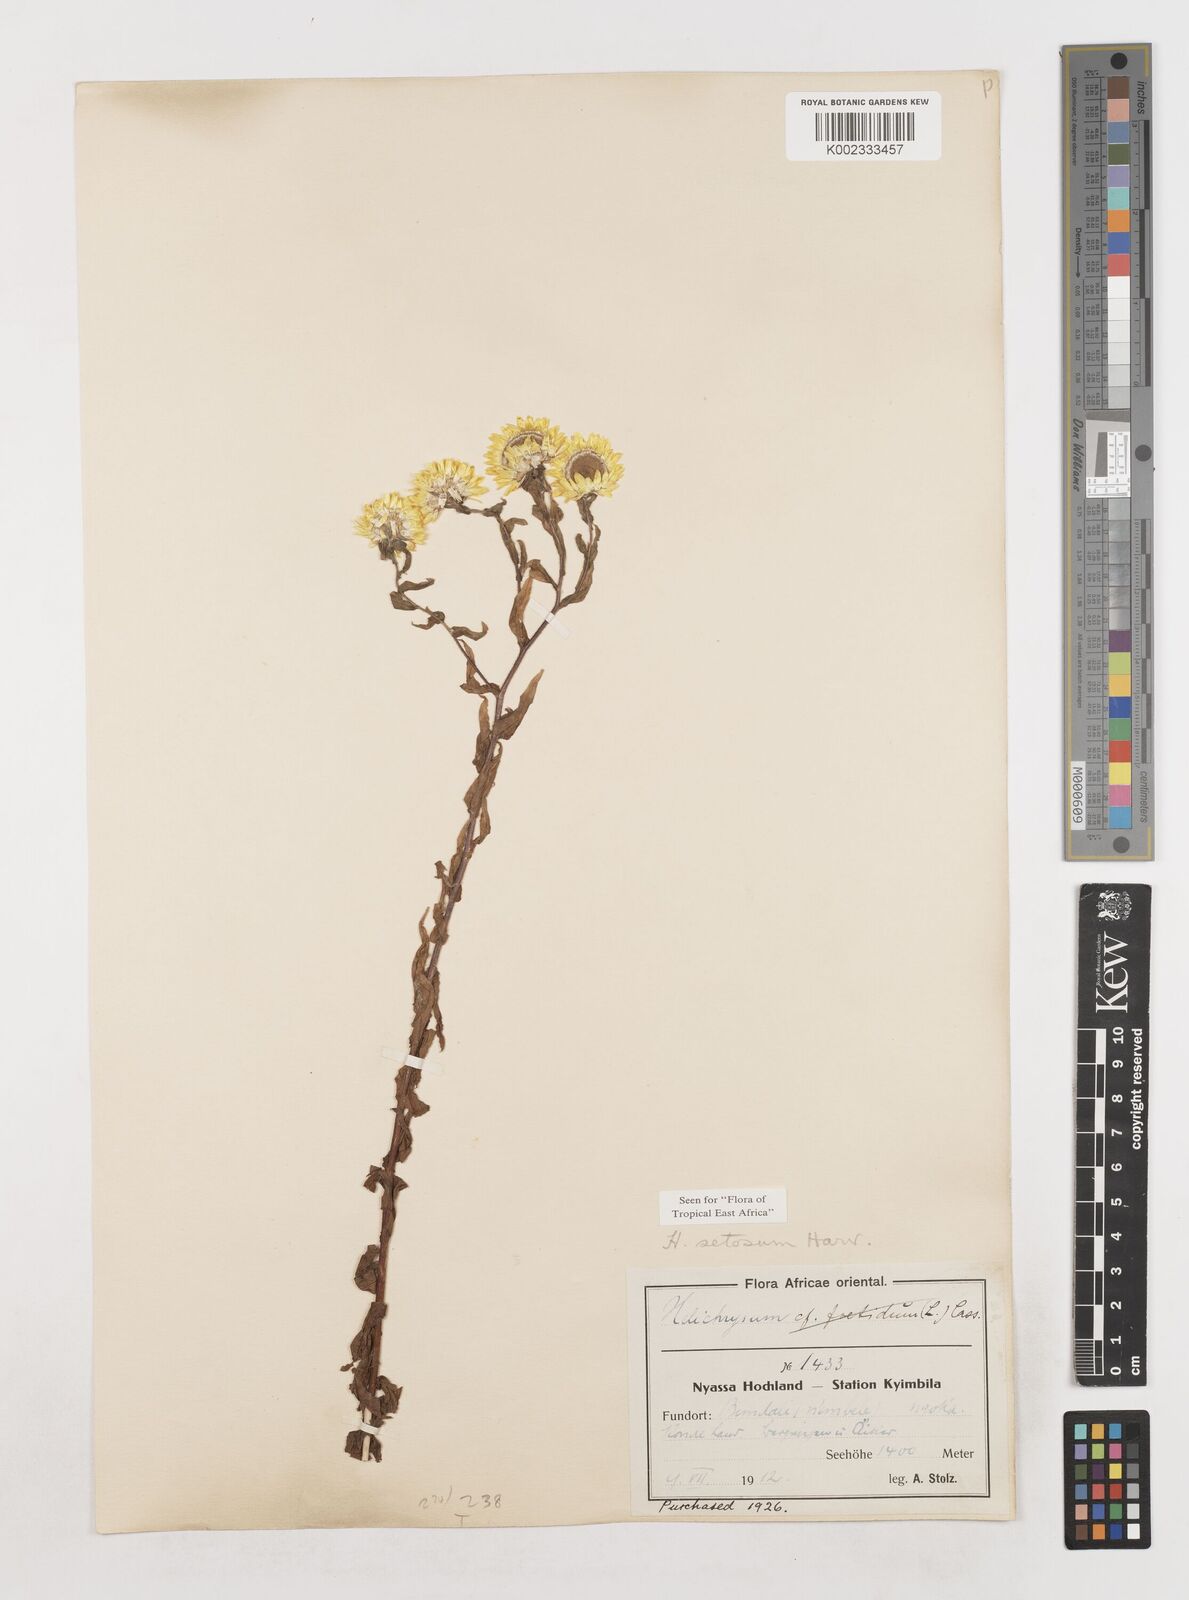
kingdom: Plantae
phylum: Tracheophyta
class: Magnoliopsida
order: Asterales
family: Asteraceae
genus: Helichrysum
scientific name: Helichrysum setosum
